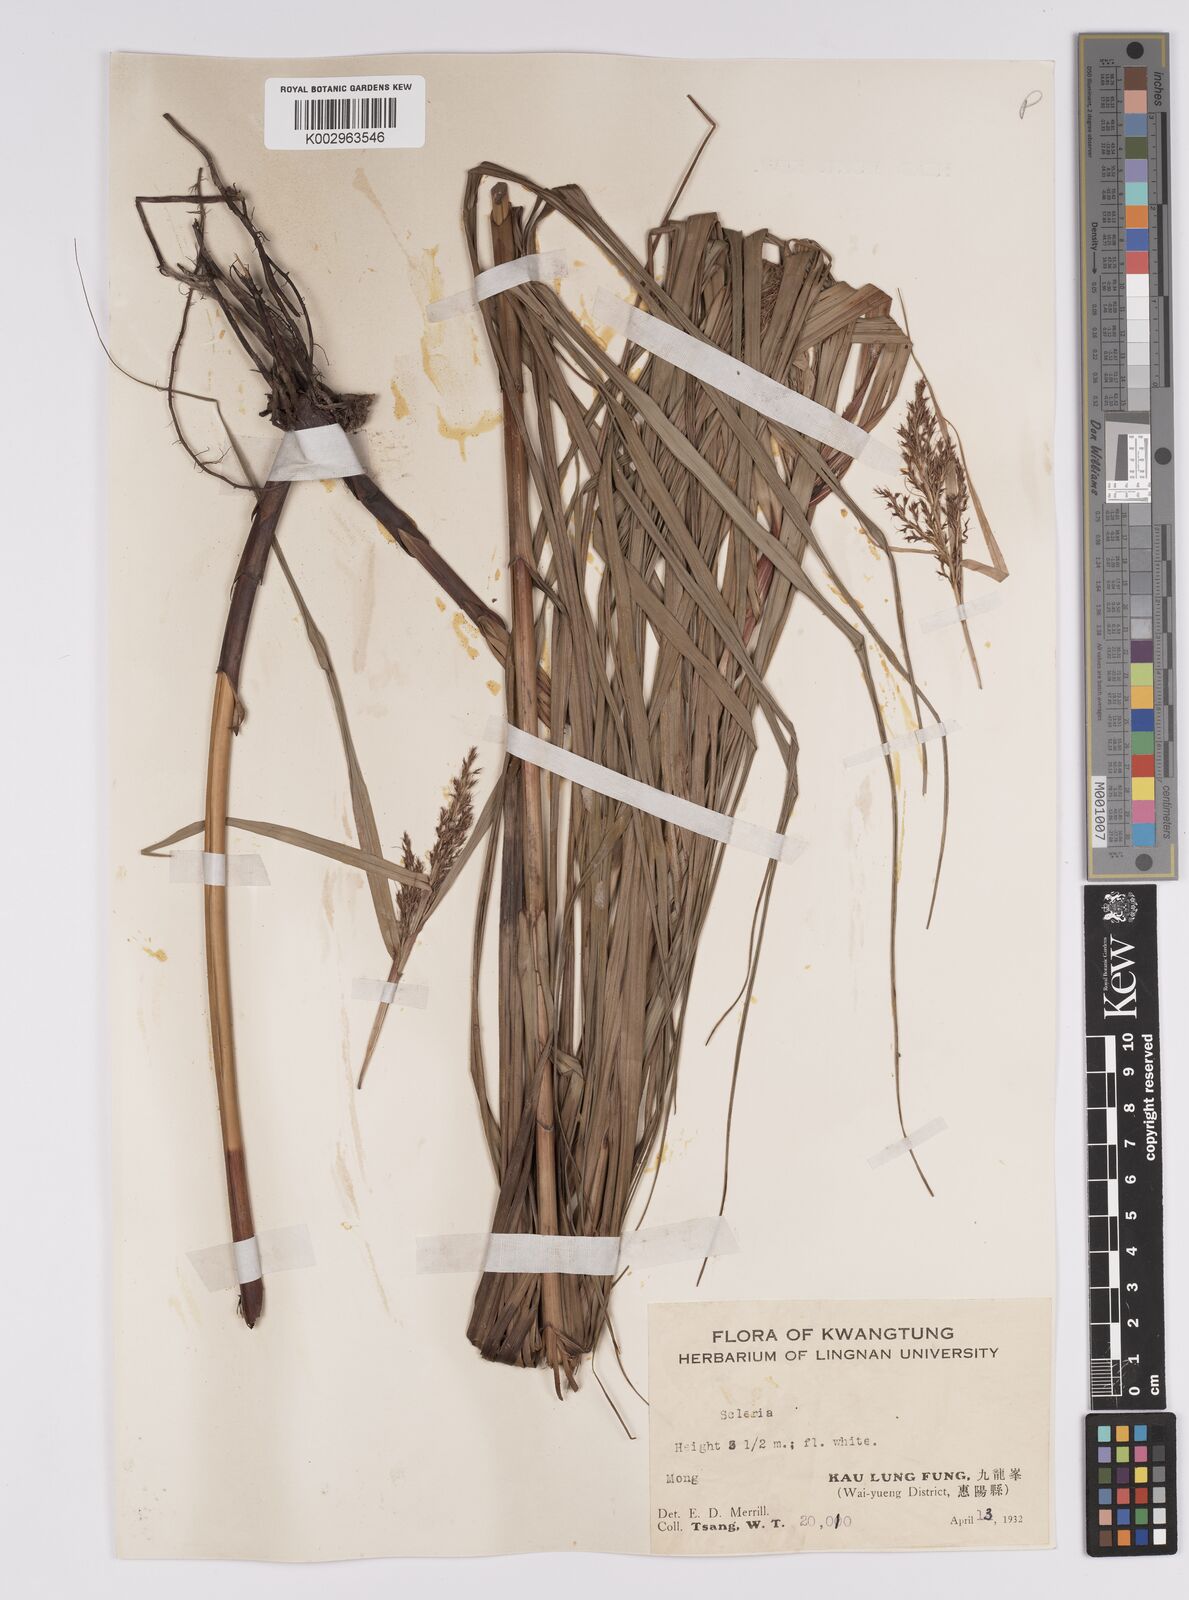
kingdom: Plantae
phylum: Tracheophyta
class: Liliopsida
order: Poales
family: Cyperaceae
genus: Scleria
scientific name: Scleria sumatrensis
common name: Sumatran scleria
